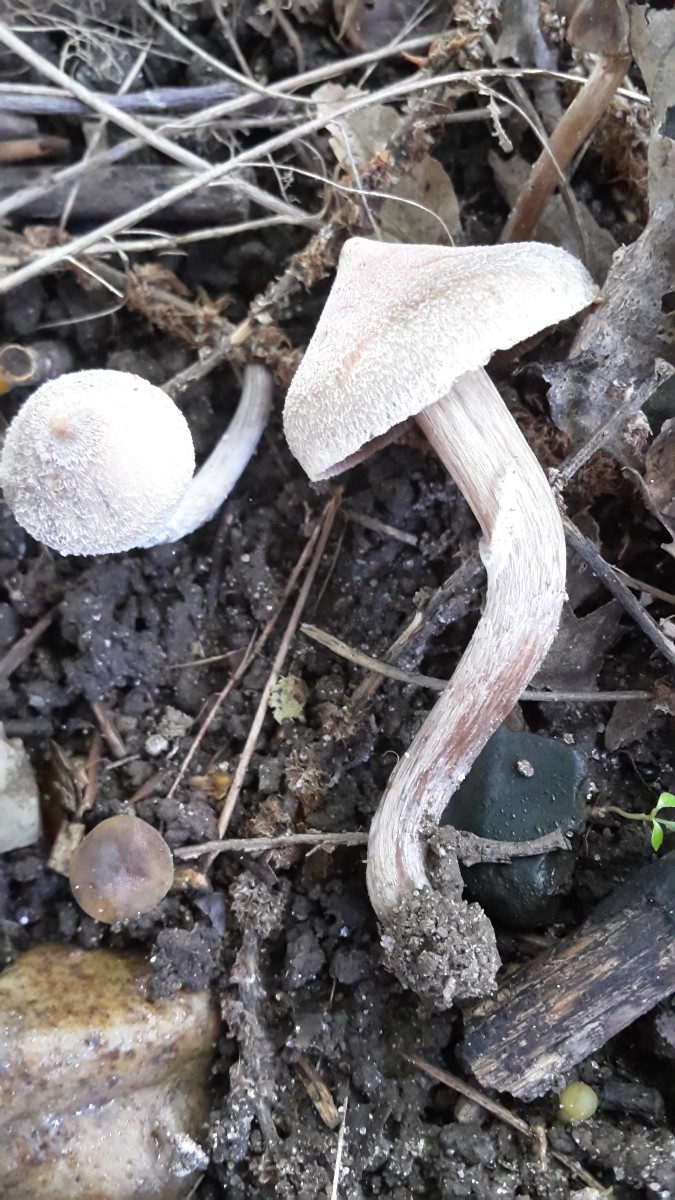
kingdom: Fungi
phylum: Basidiomycota
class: Agaricomycetes
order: Agaricales
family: Cortinariaceae
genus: Cortinarius
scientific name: Cortinarius geraniolens
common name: geranium-slørhat
